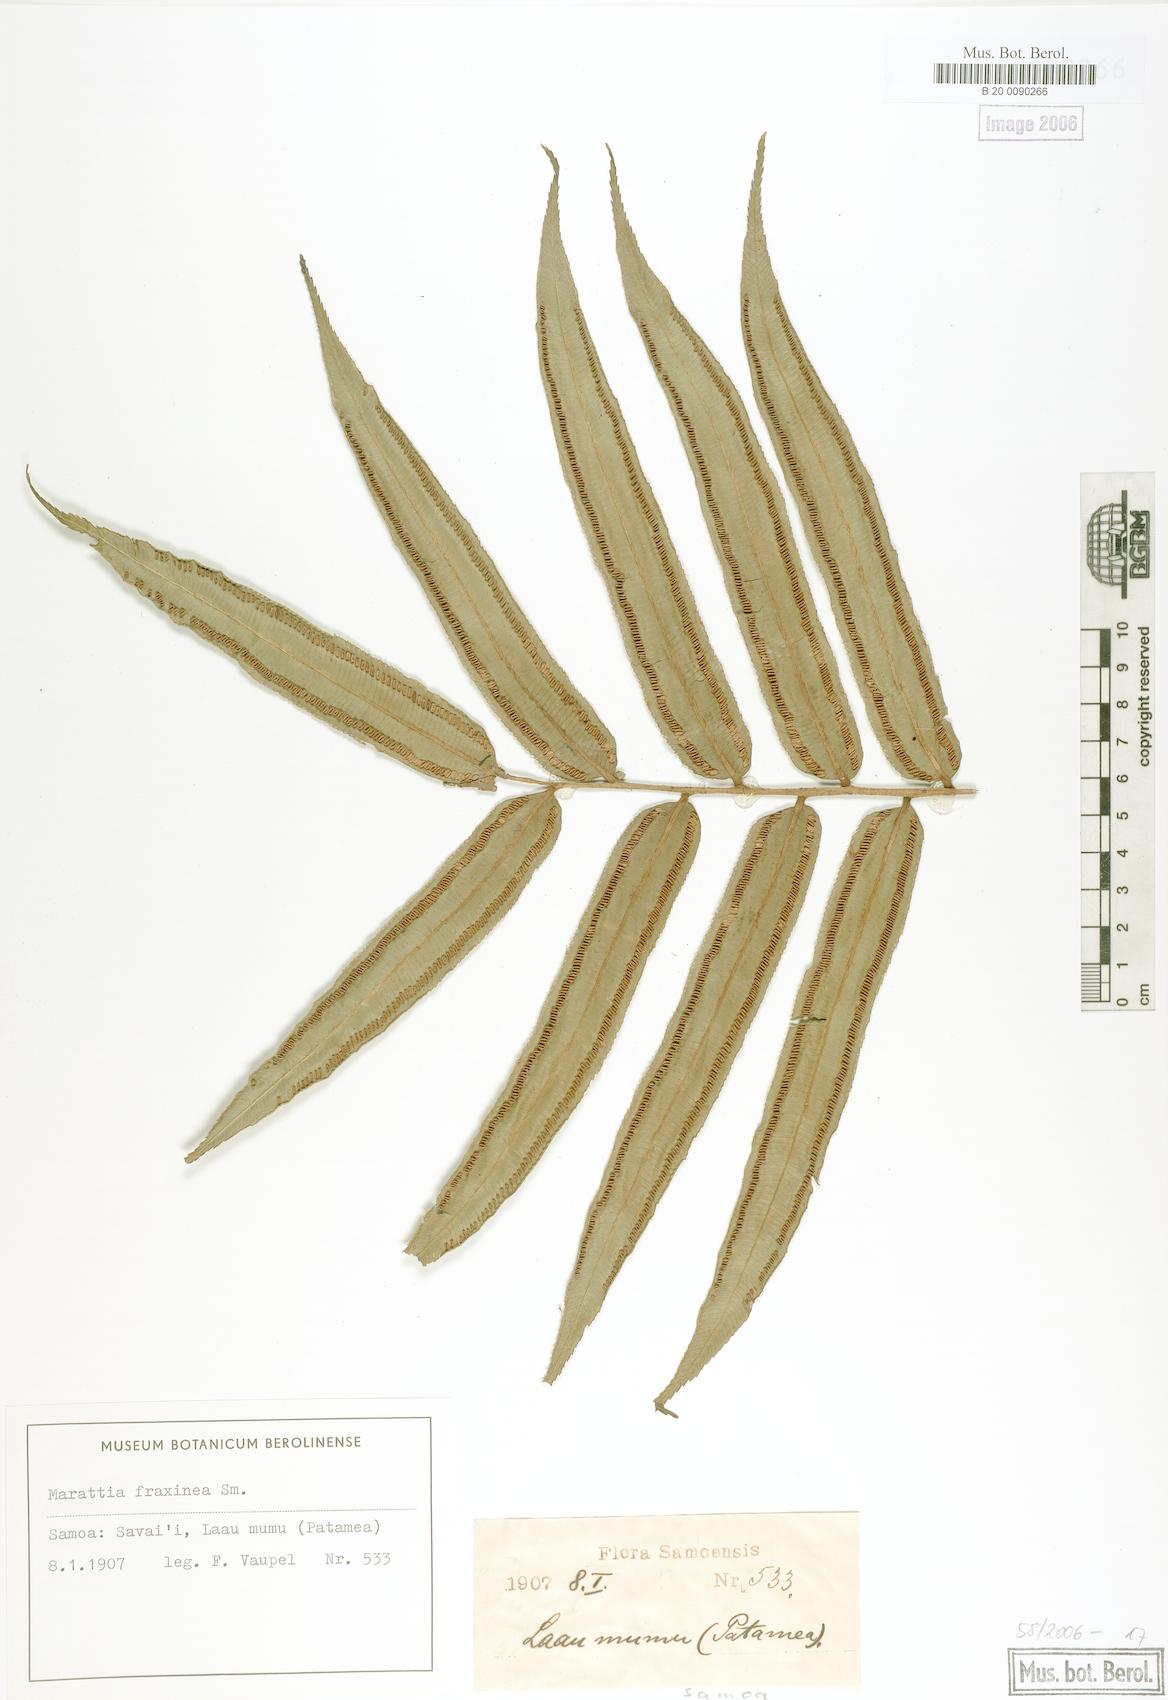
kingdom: Plantae
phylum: Tracheophyta
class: Polypodiopsida
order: Marattiales
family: Marattiaceae
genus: Ptisana
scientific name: Ptisana smithii
